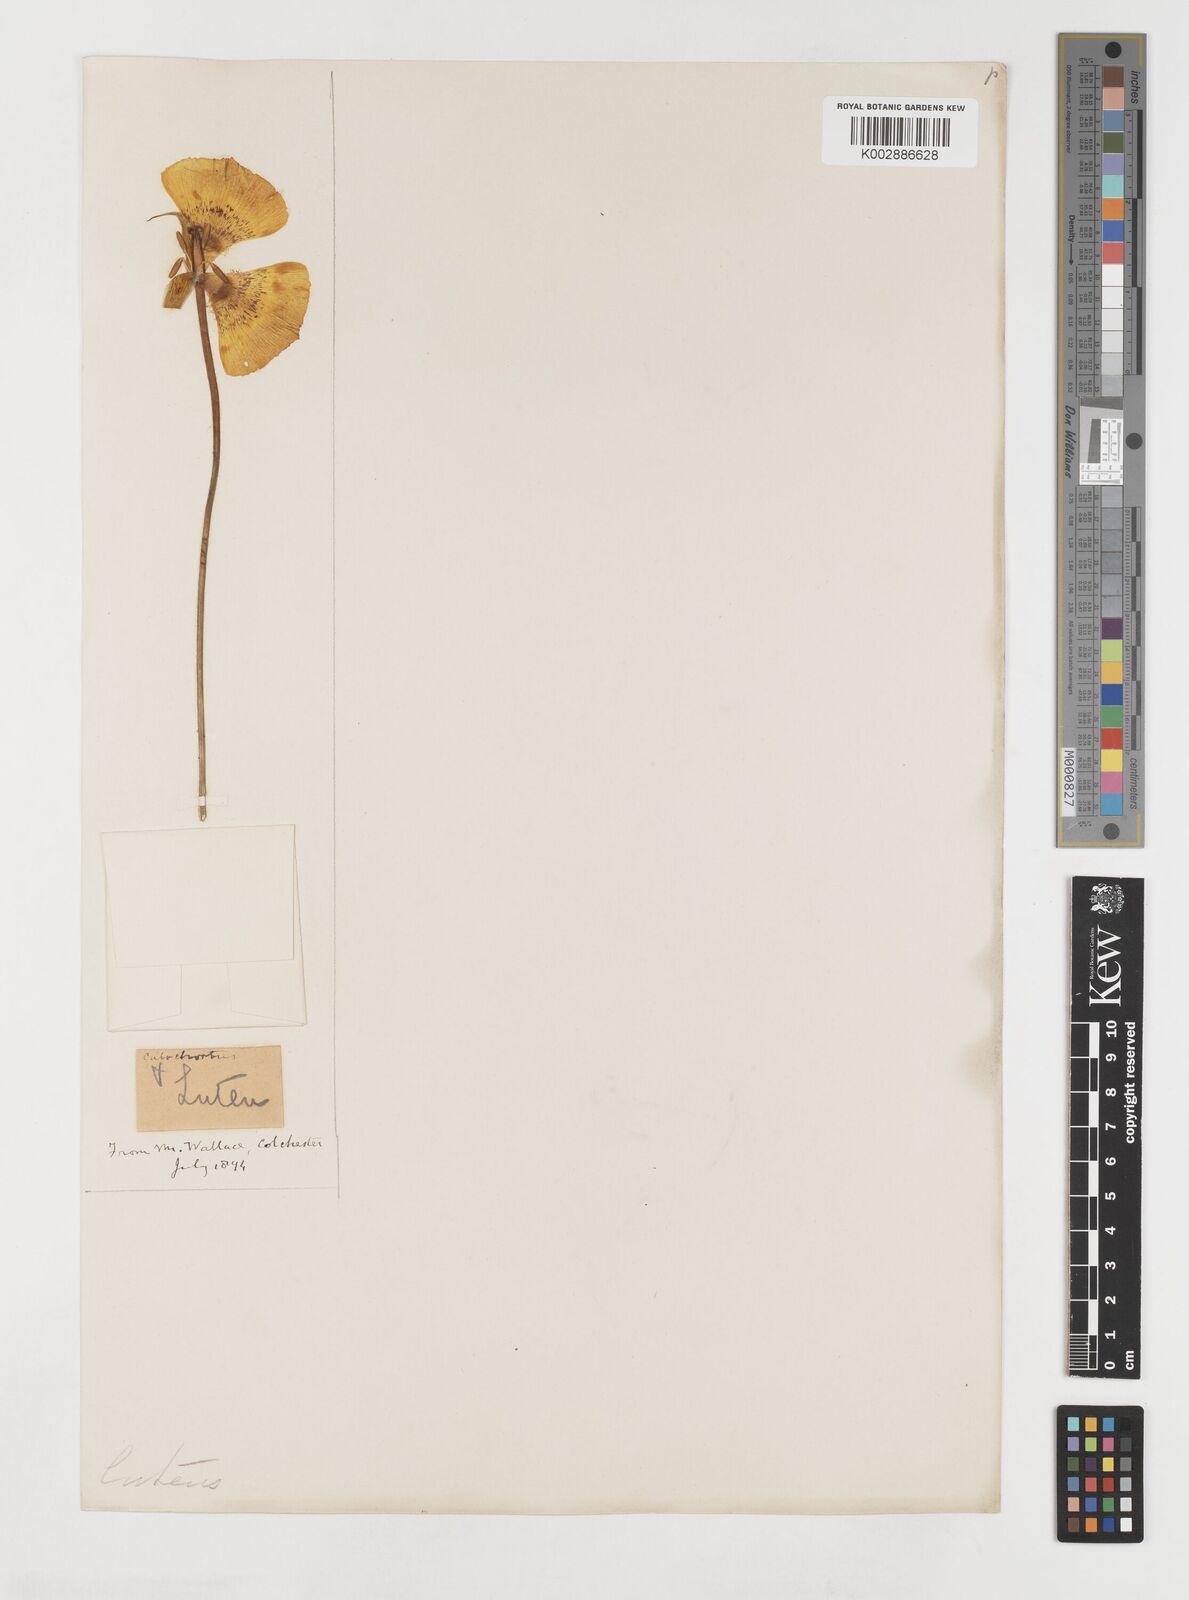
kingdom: Plantae
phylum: Tracheophyta
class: Liliopsida
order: Liliales
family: Liliaceae
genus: Calochortus
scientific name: Calochortus nuttallii
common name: Sego-lily
